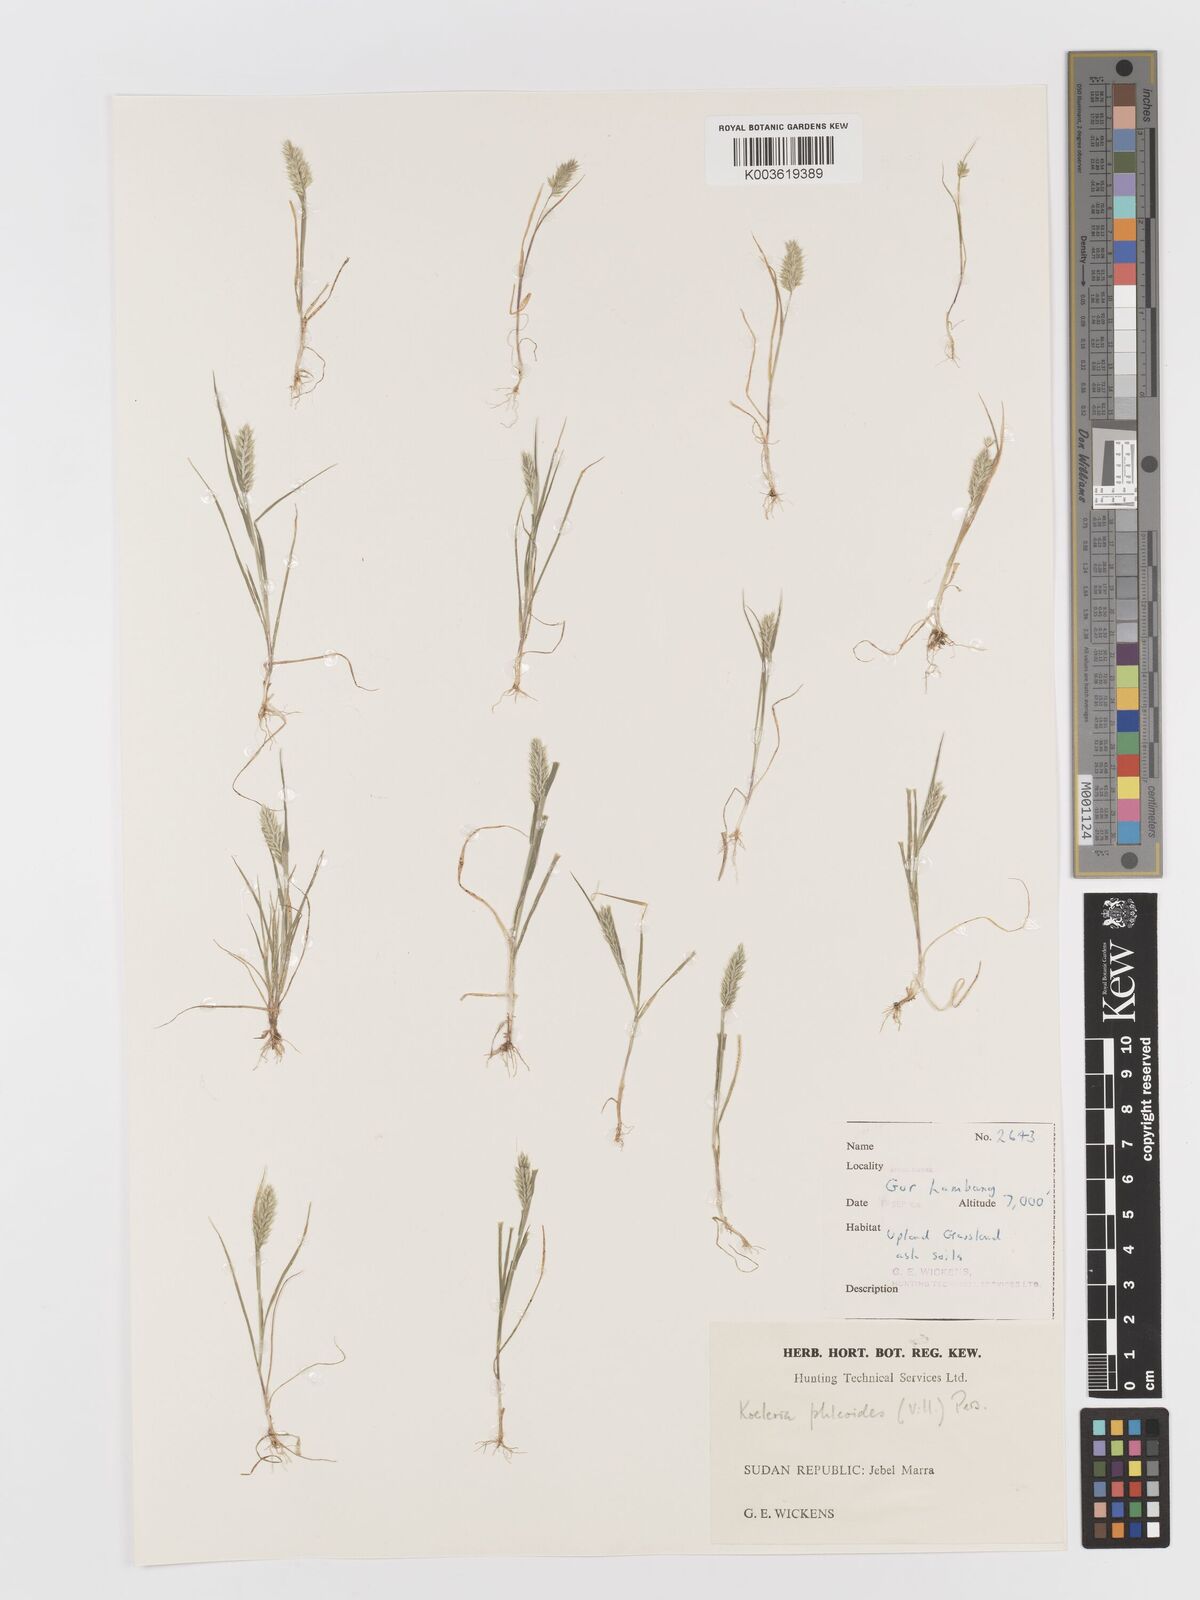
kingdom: Plantae
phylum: Tracheophyta
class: Liliopsida
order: Poales
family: Poaceae
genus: Rostraria
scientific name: Rostraria cristata
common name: Mediterranean hair-grass
